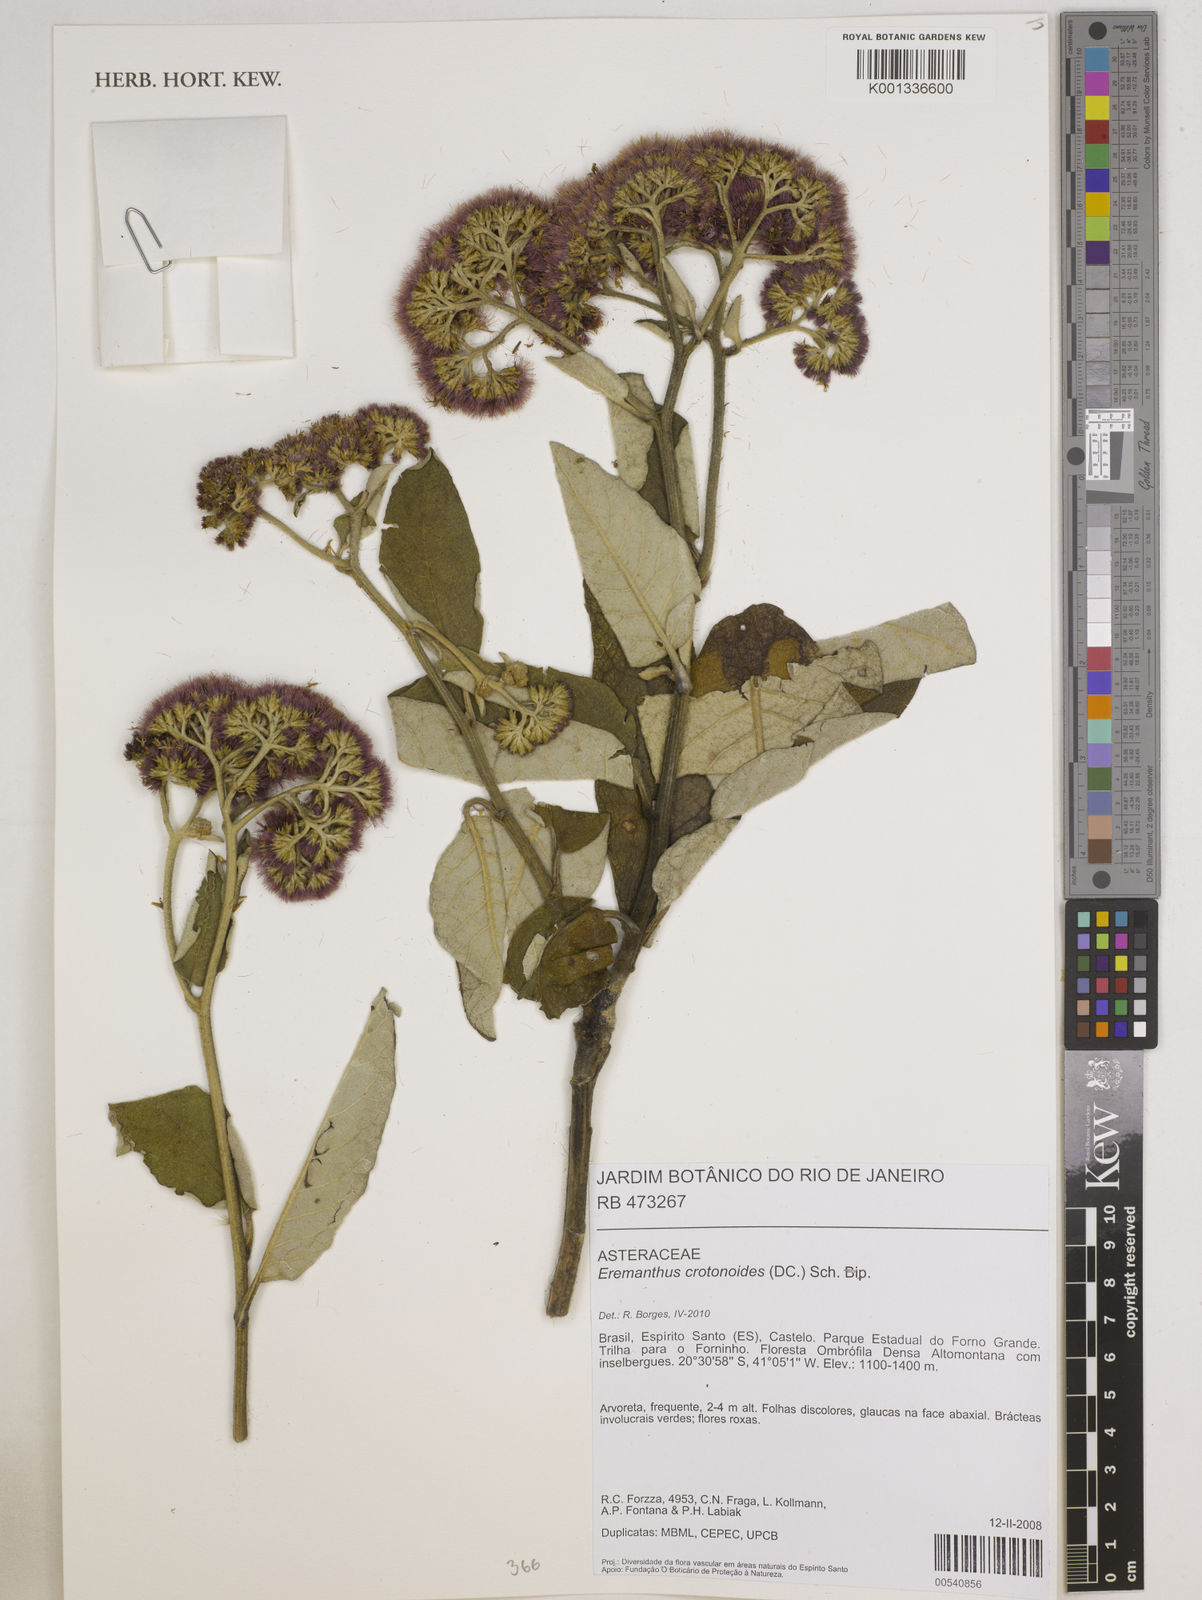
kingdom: Plantae
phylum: Tracheophyta
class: Magnoliopsida
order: Asterales
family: Asteraceae
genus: Eremanthus
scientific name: Eremanthus crotonoides
